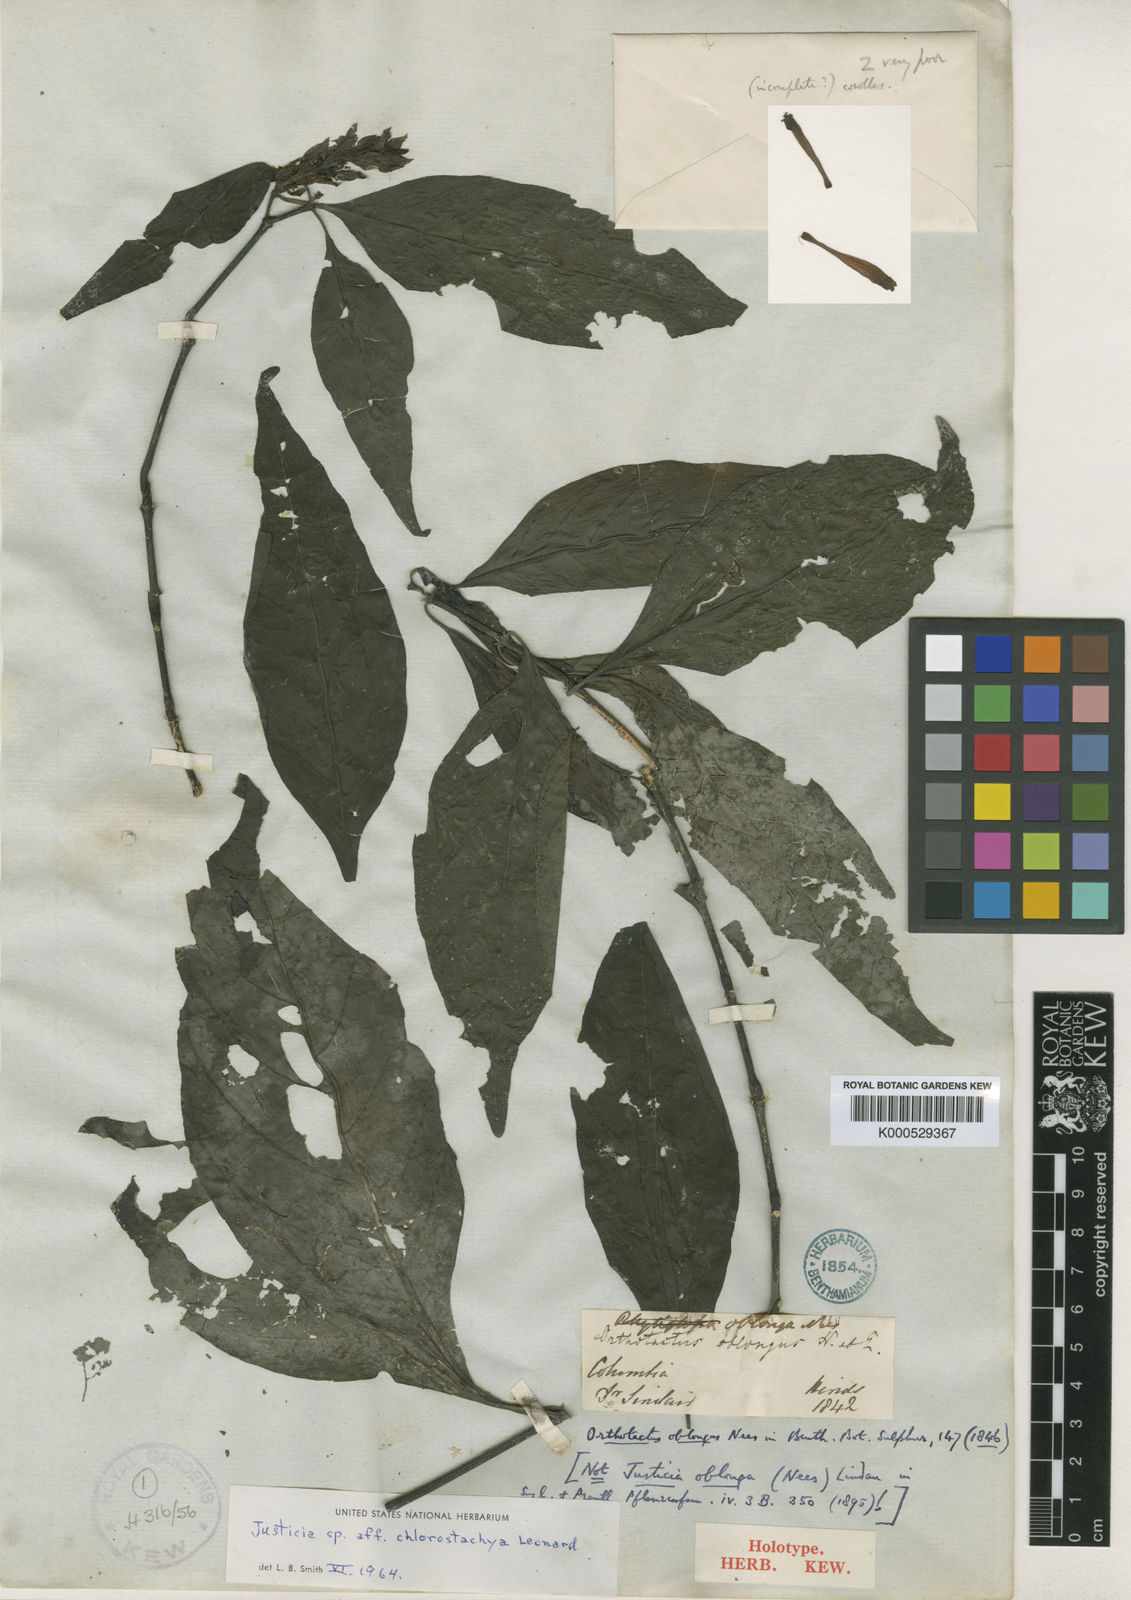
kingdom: Plantae
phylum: Tracheophyta
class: Magnoliopsida
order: Lamiales
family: Acanthaceae
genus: Dianthera
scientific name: Dianthera oblonga
